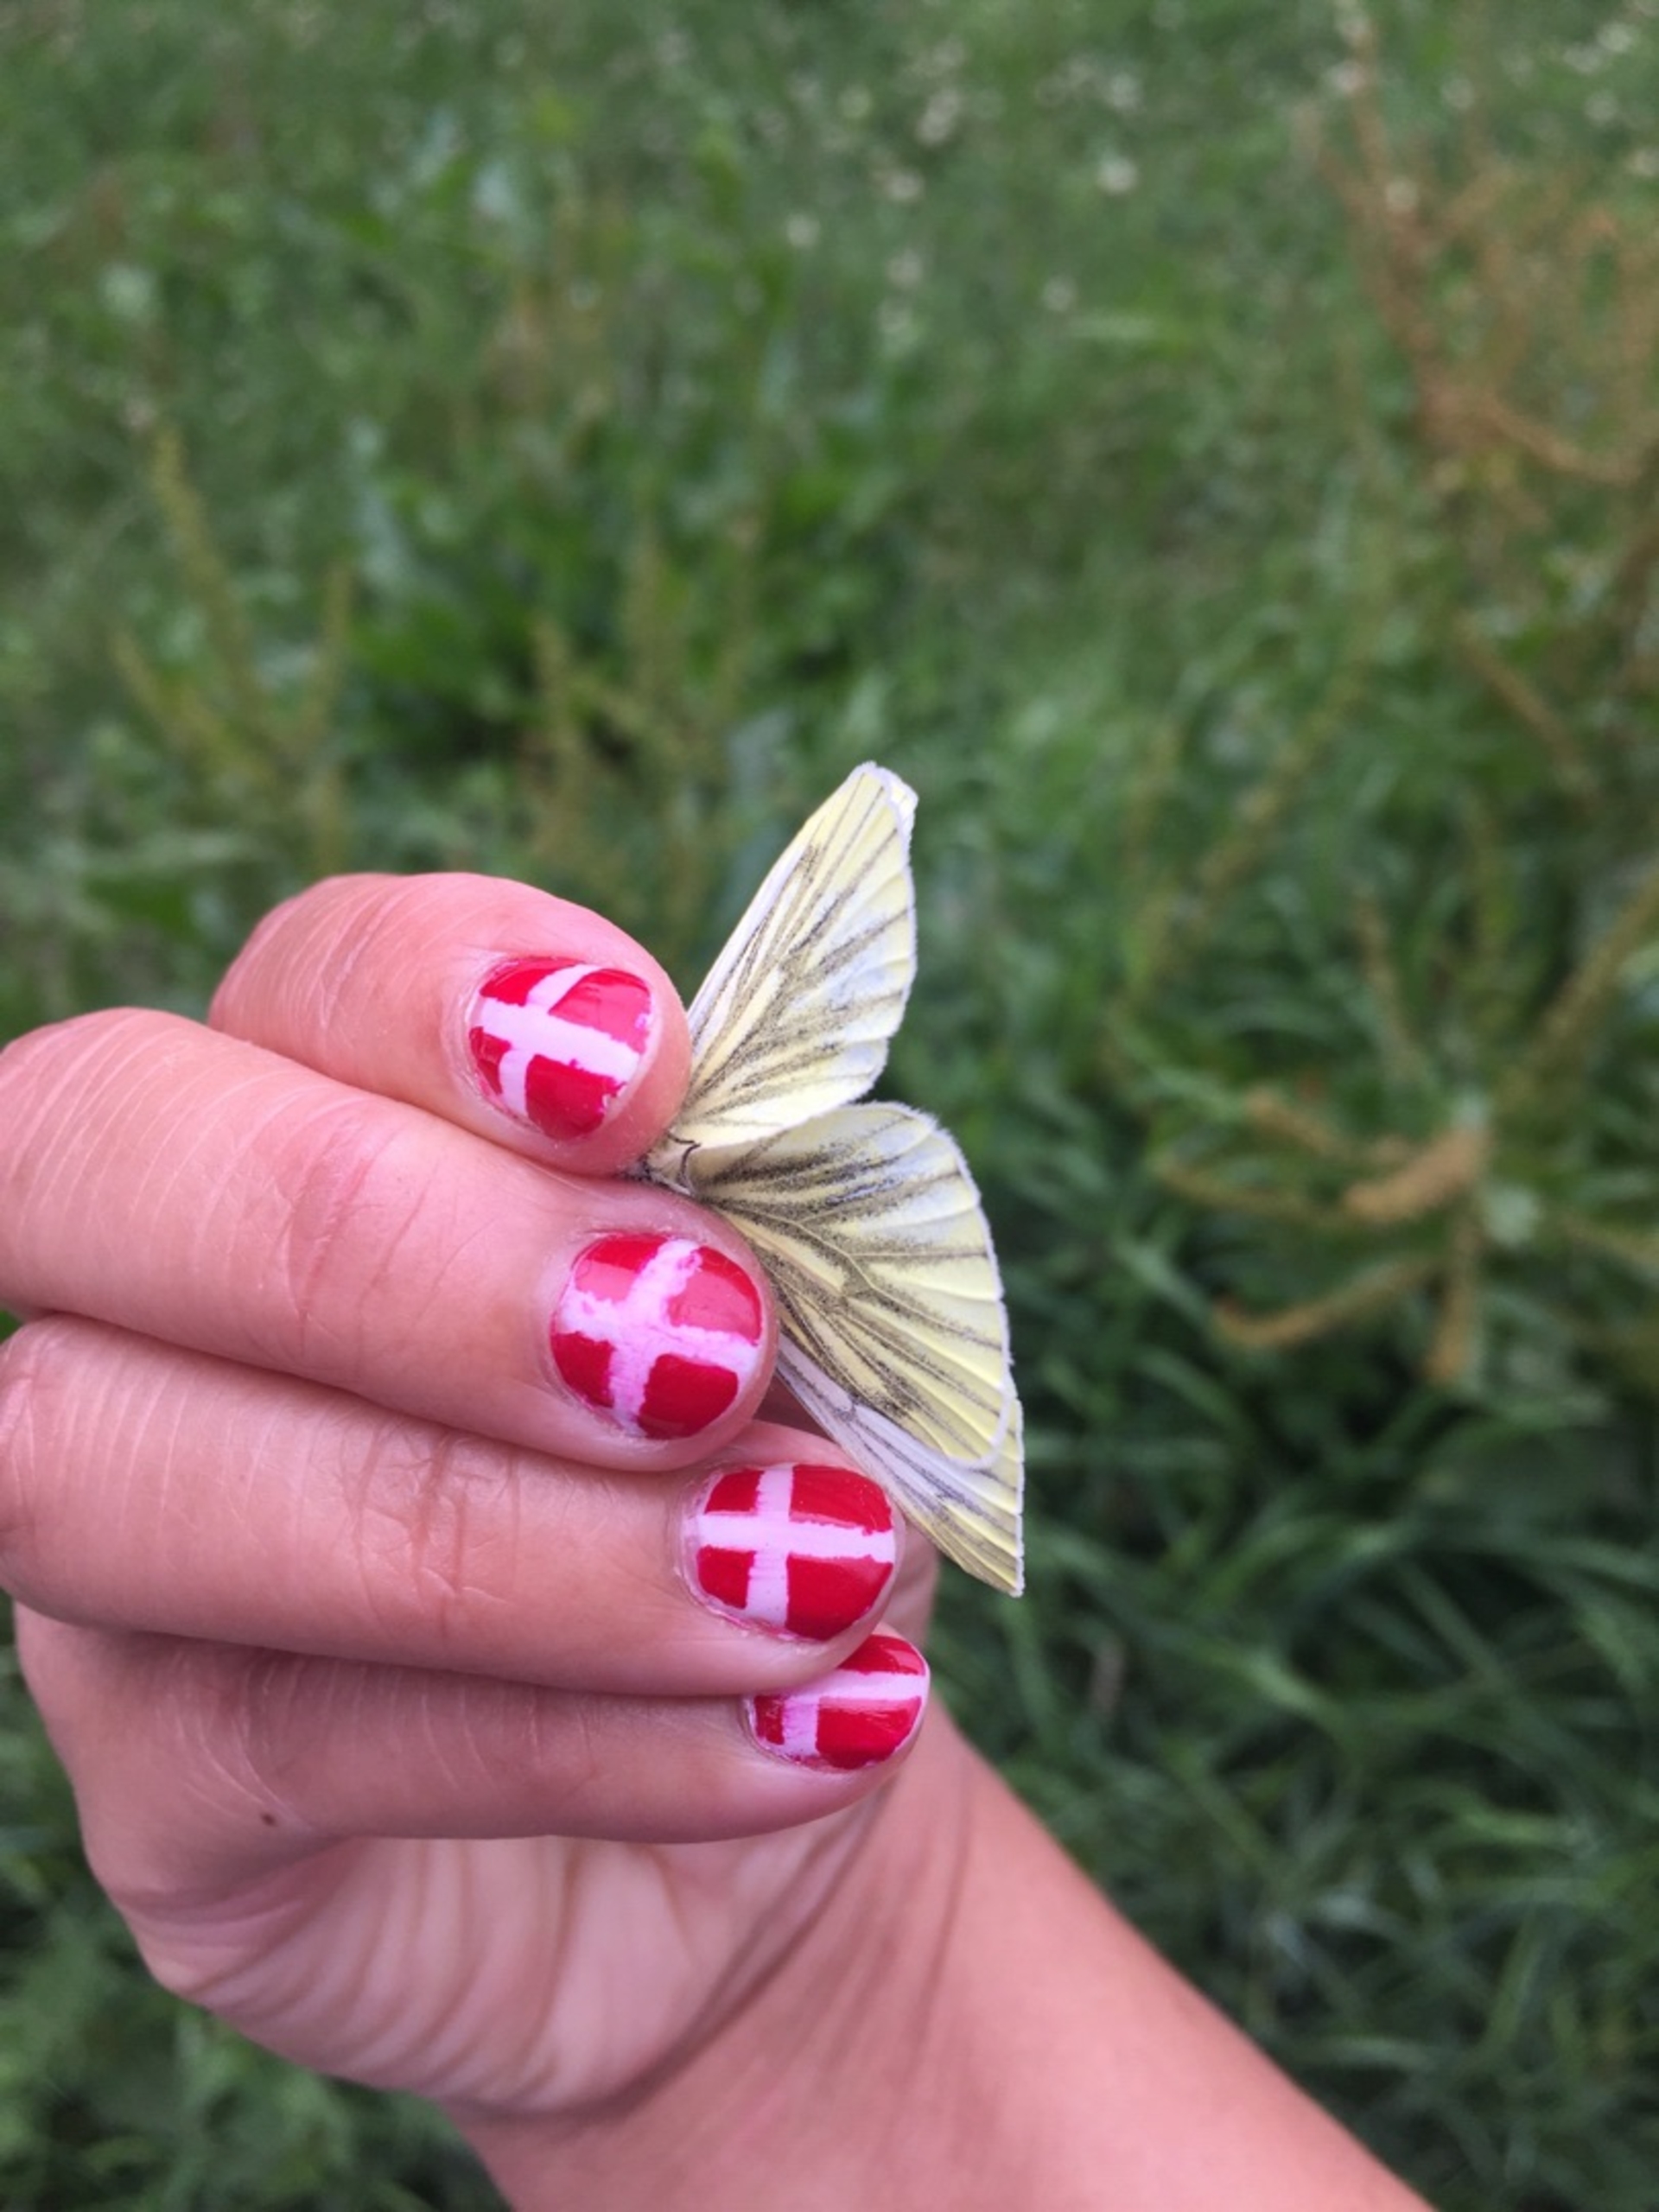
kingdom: Animalia
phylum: Arthropoda
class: Insecta
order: Lepidoptera
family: Pieridae
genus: Pieris
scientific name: Pieris napi
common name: Grønåret kålsommerfugl
